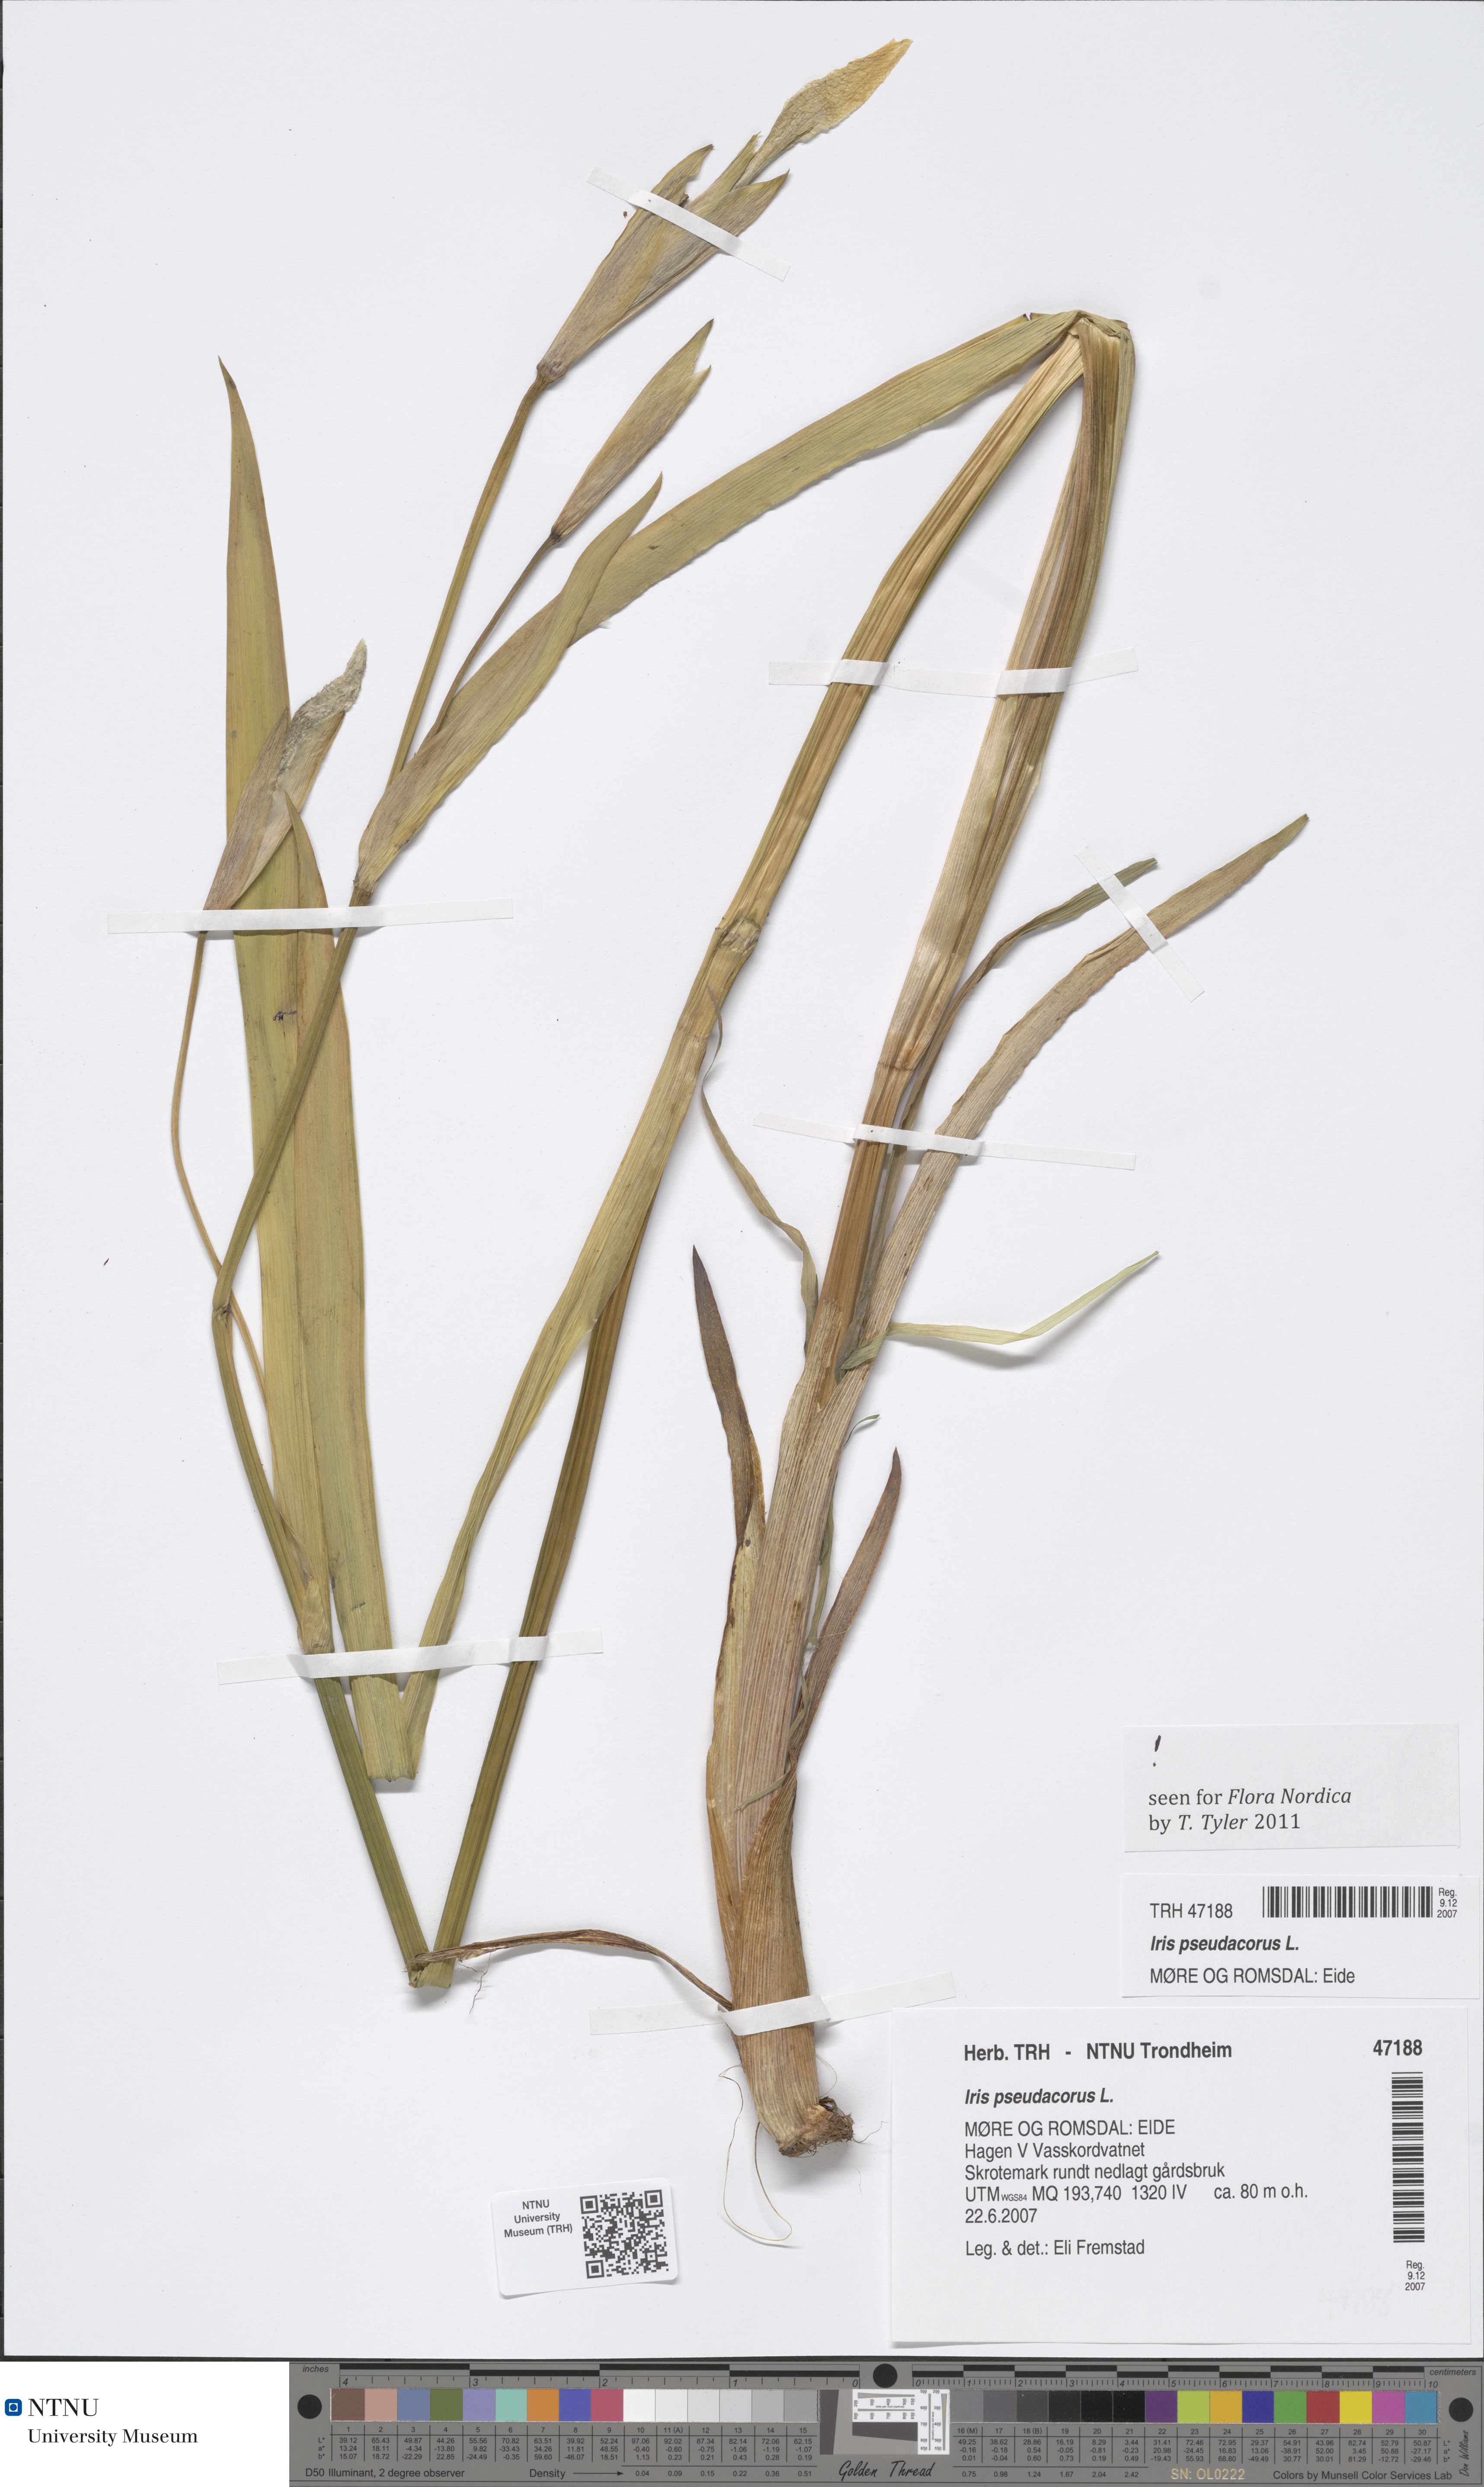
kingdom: Plantae
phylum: Tracheophyta
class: Liliopsida
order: Asparagales
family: Iridaceae
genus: Iris
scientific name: Iris pseudacorus
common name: Yellow flag
